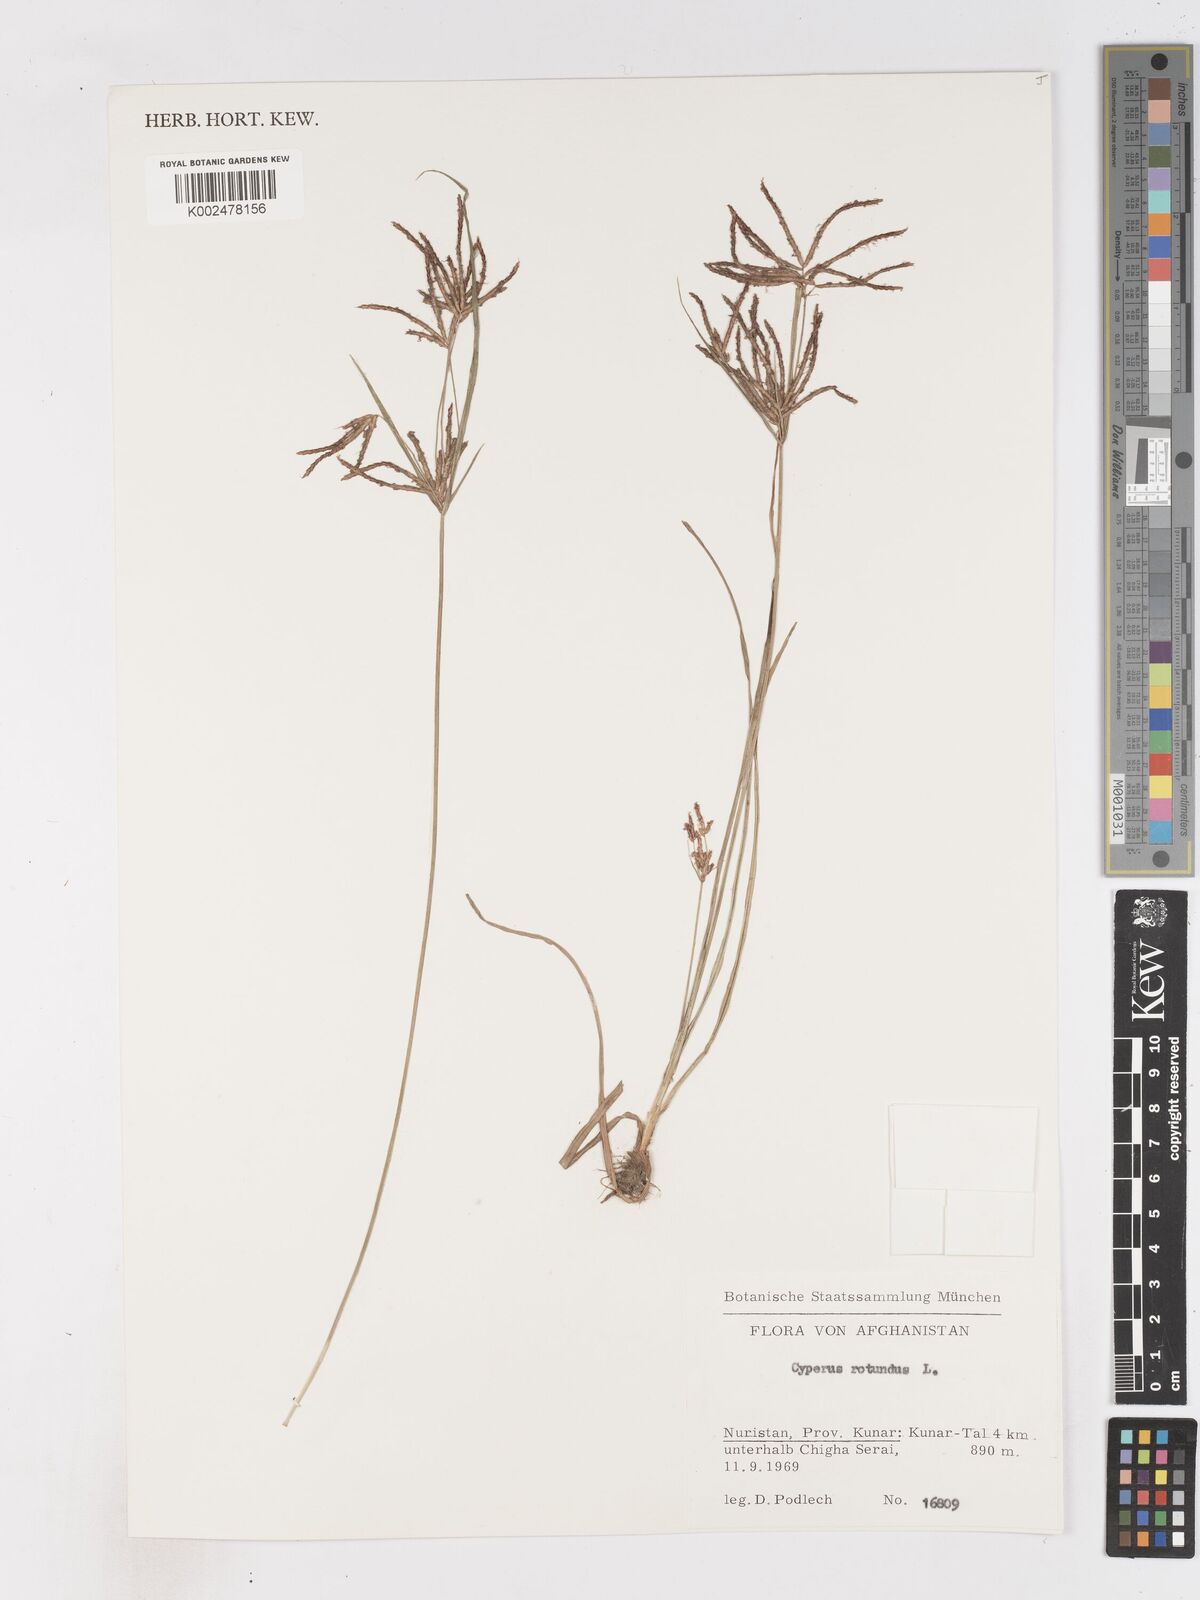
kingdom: Plantae
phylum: Tracheophyta
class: Liliopsida
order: Poales
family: Cyperaceae
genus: Cyperus
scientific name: Cyperus rotundus
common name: Nutgrass
